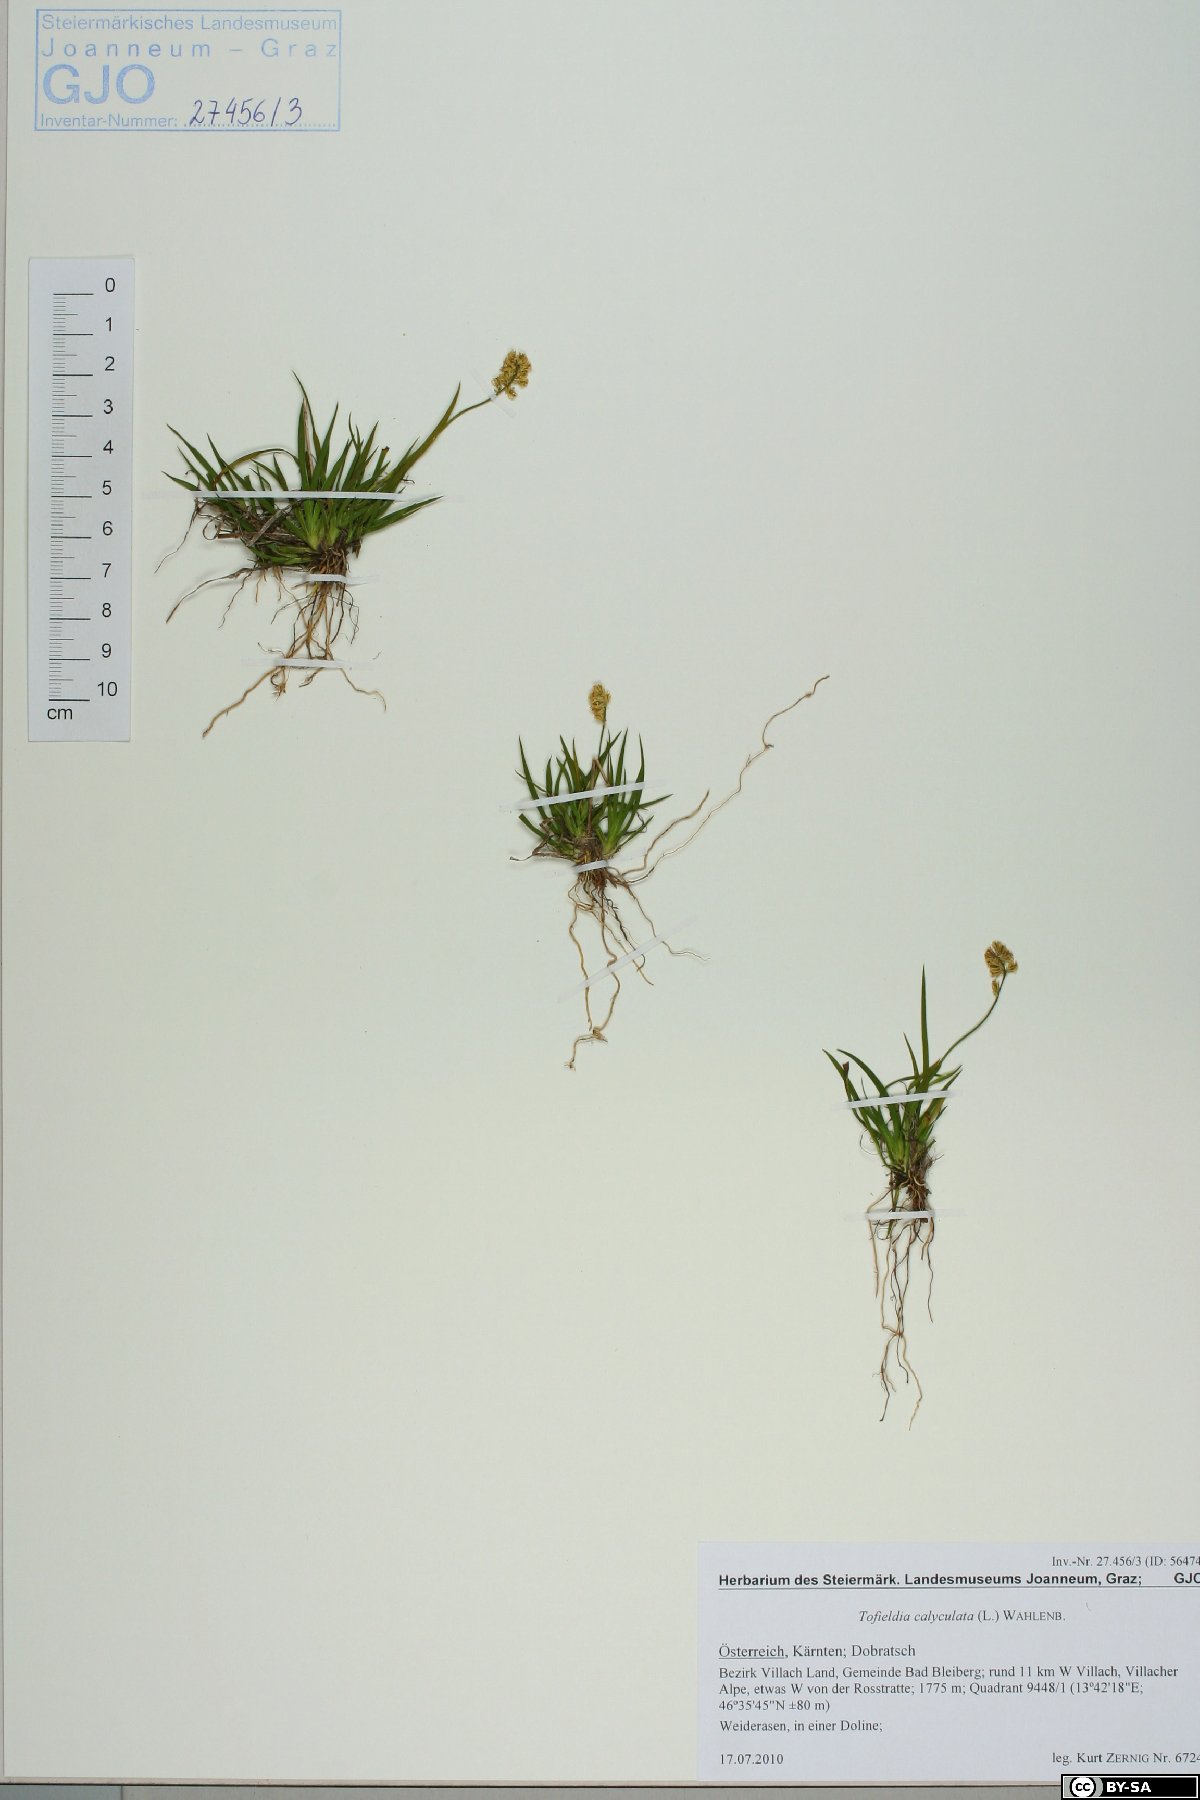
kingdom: Plantae
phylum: Tracheophyta
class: Liliopsida
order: Alismatales
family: Tofieldiaceae
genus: Tofieldia
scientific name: Tofieldia calyculata
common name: German-asphodel
